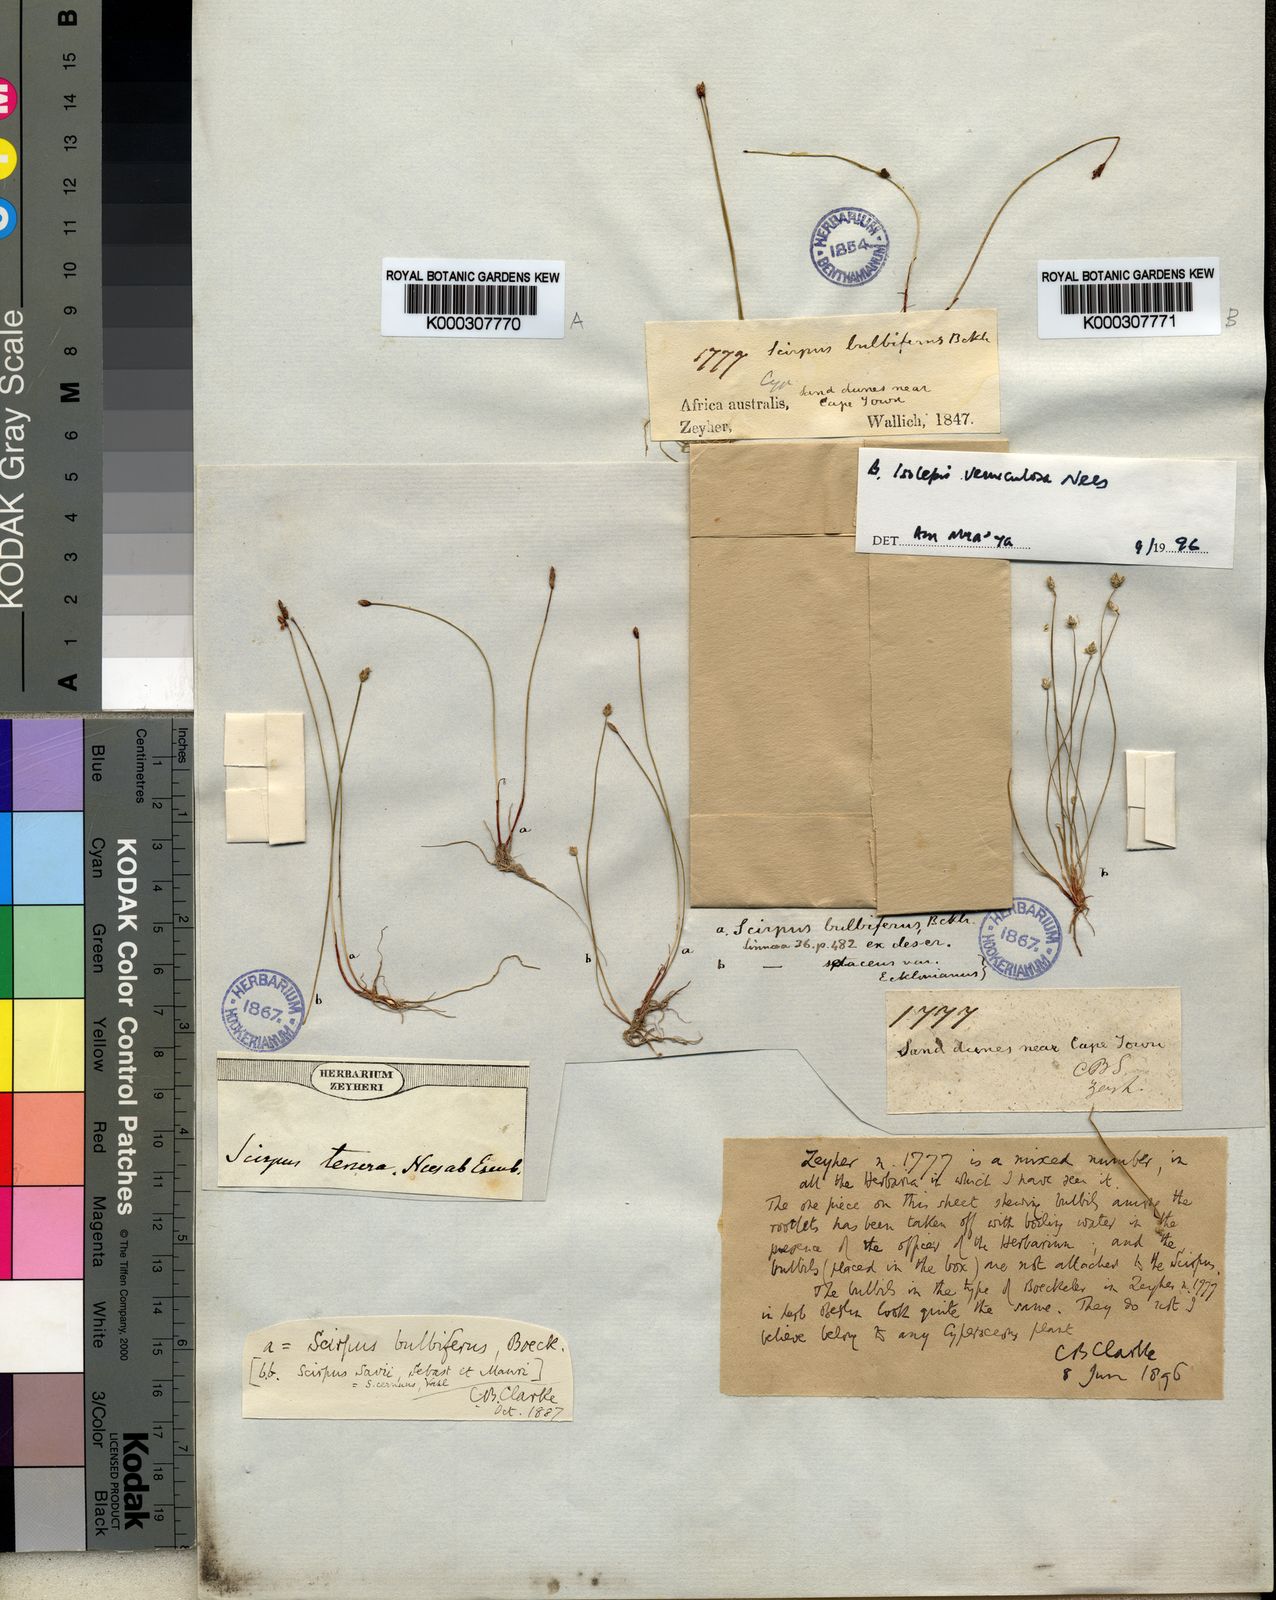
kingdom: Plantae
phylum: Tracheophyta
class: Liliopsida
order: Poales
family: Cyperaceae
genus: Isolepis
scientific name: Isolepis
